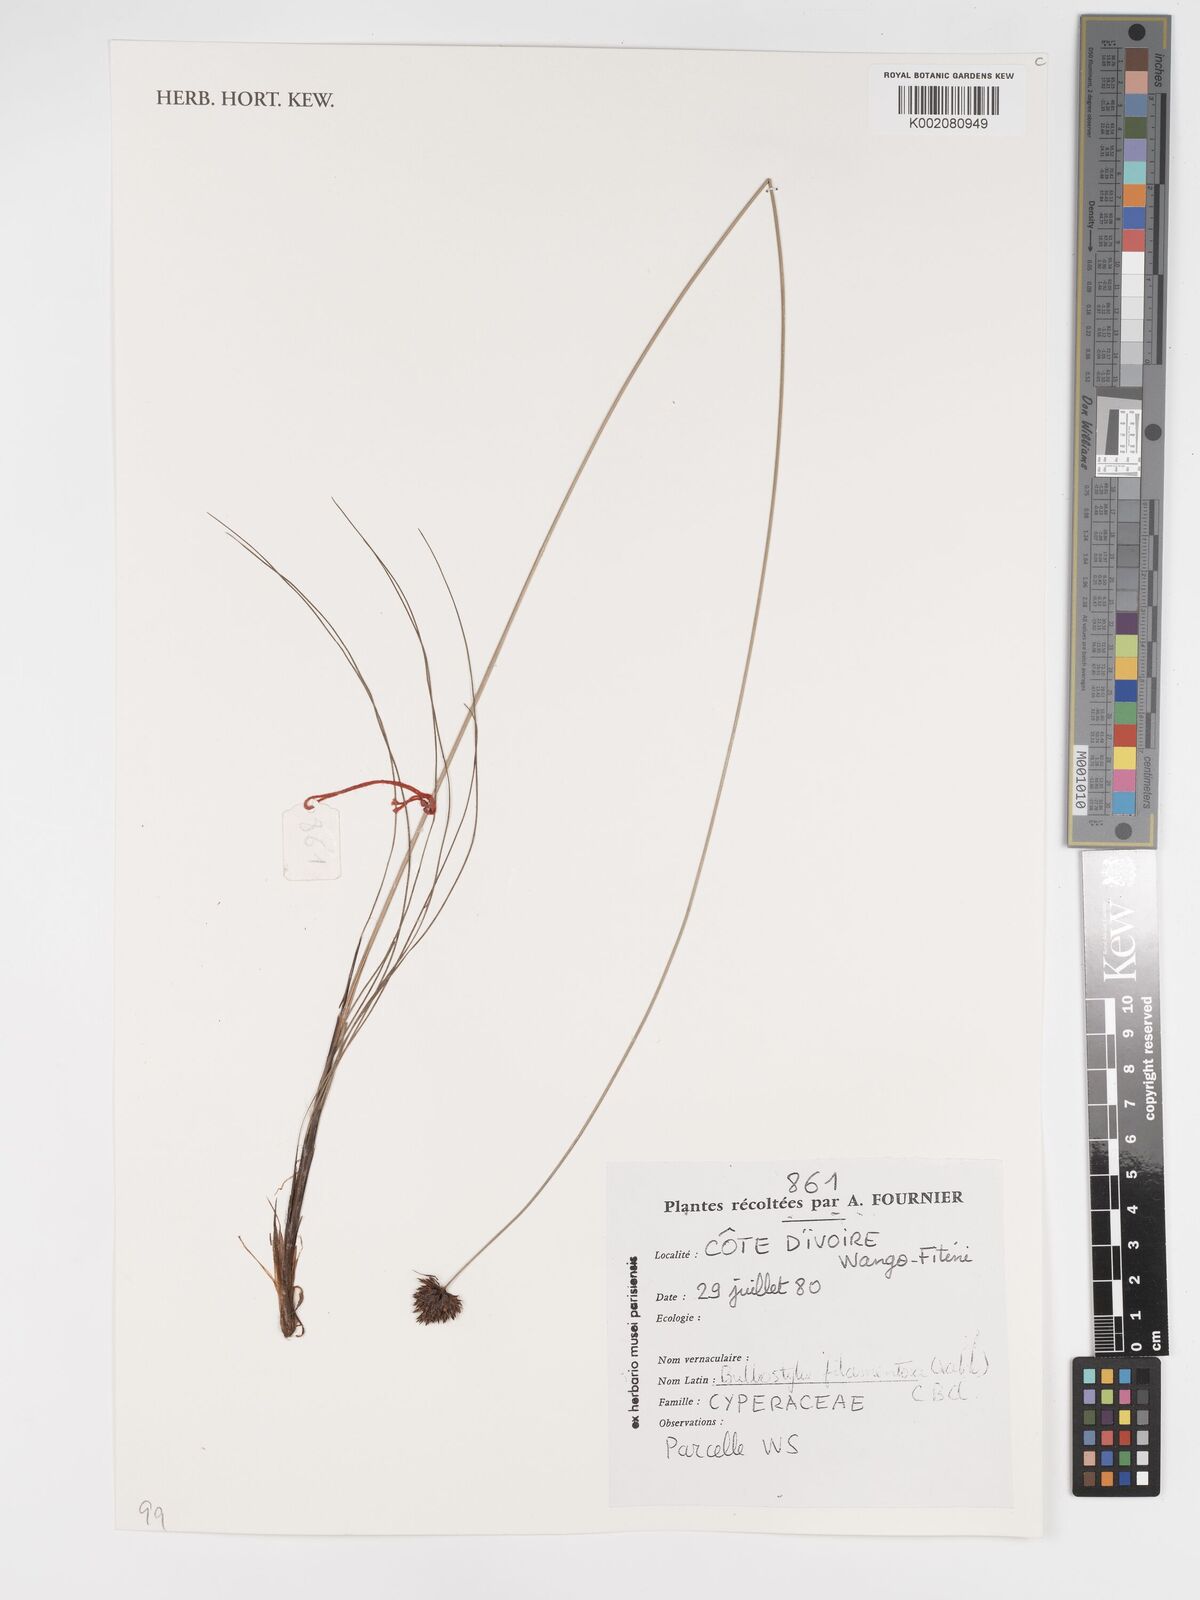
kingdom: Plantae
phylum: Tracheophyta
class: Liliopsida
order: Poales
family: Cyperaceae
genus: Bulbostylis
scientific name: Bulbostylis filamentosa
